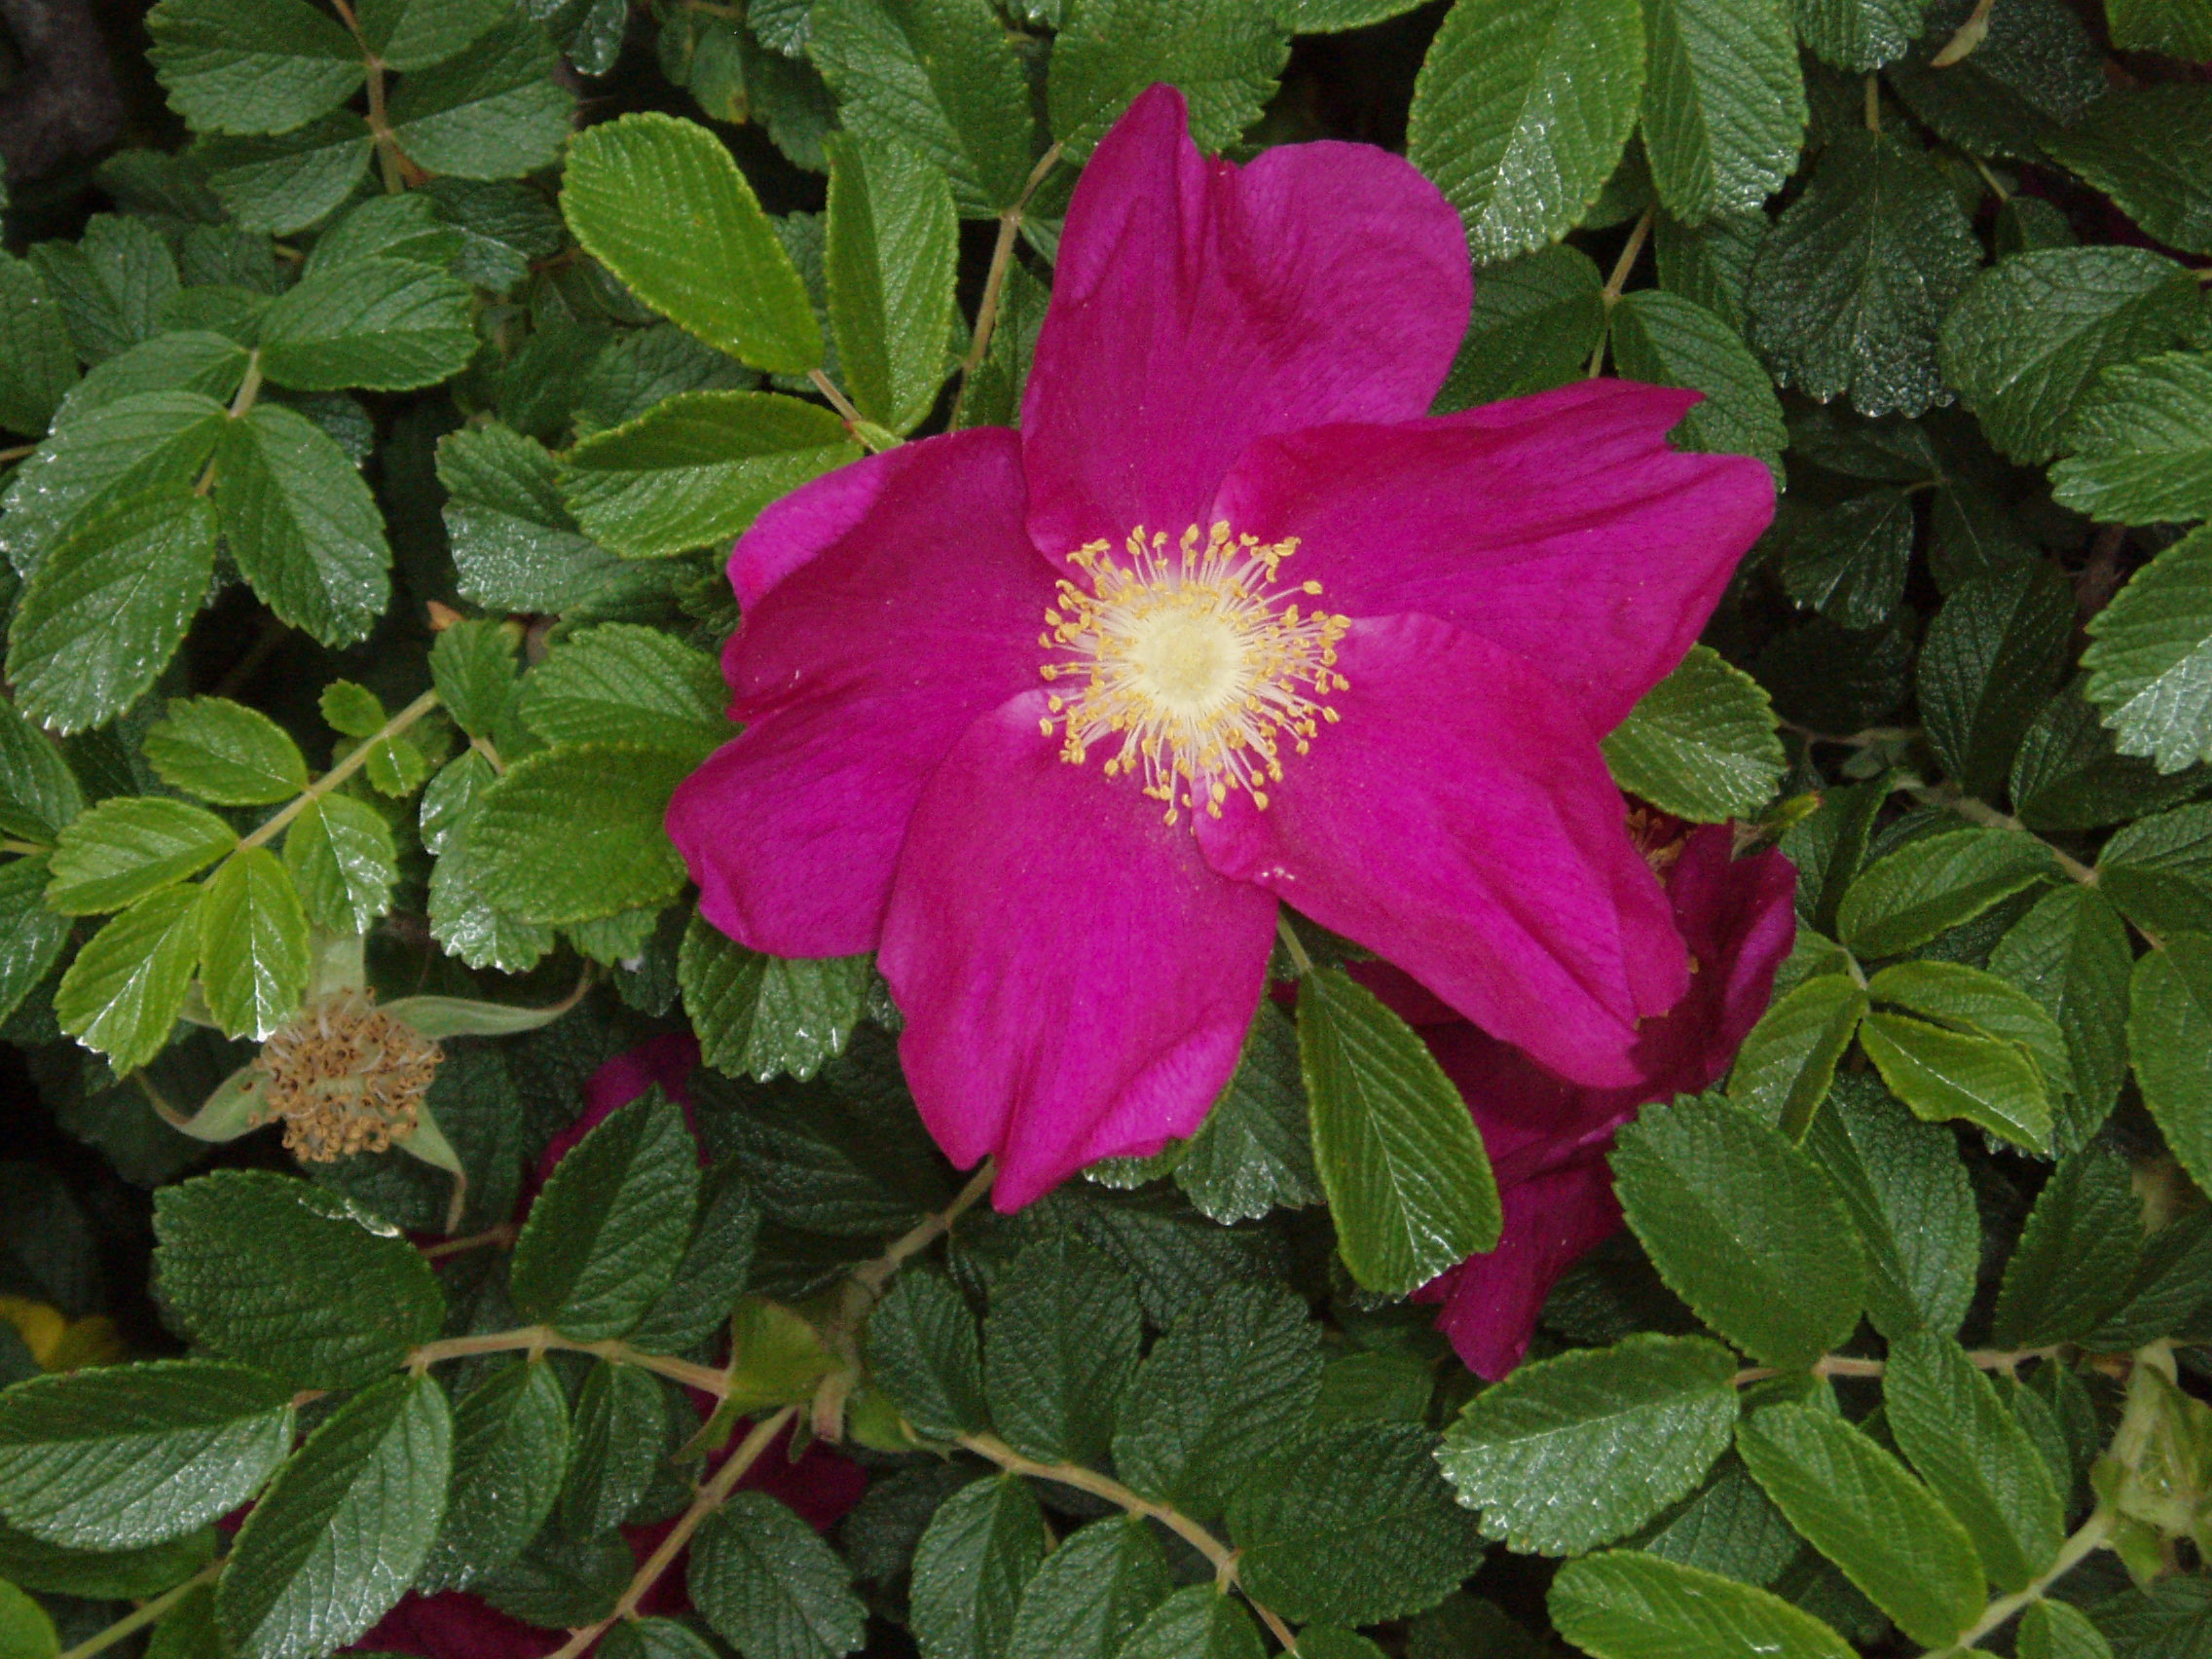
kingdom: Plantae
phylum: Tracheophyta
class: Magnoliopsida
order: Rosales
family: Rosaceae
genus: Rosa
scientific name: Rosa rugosa
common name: Japanese rose
